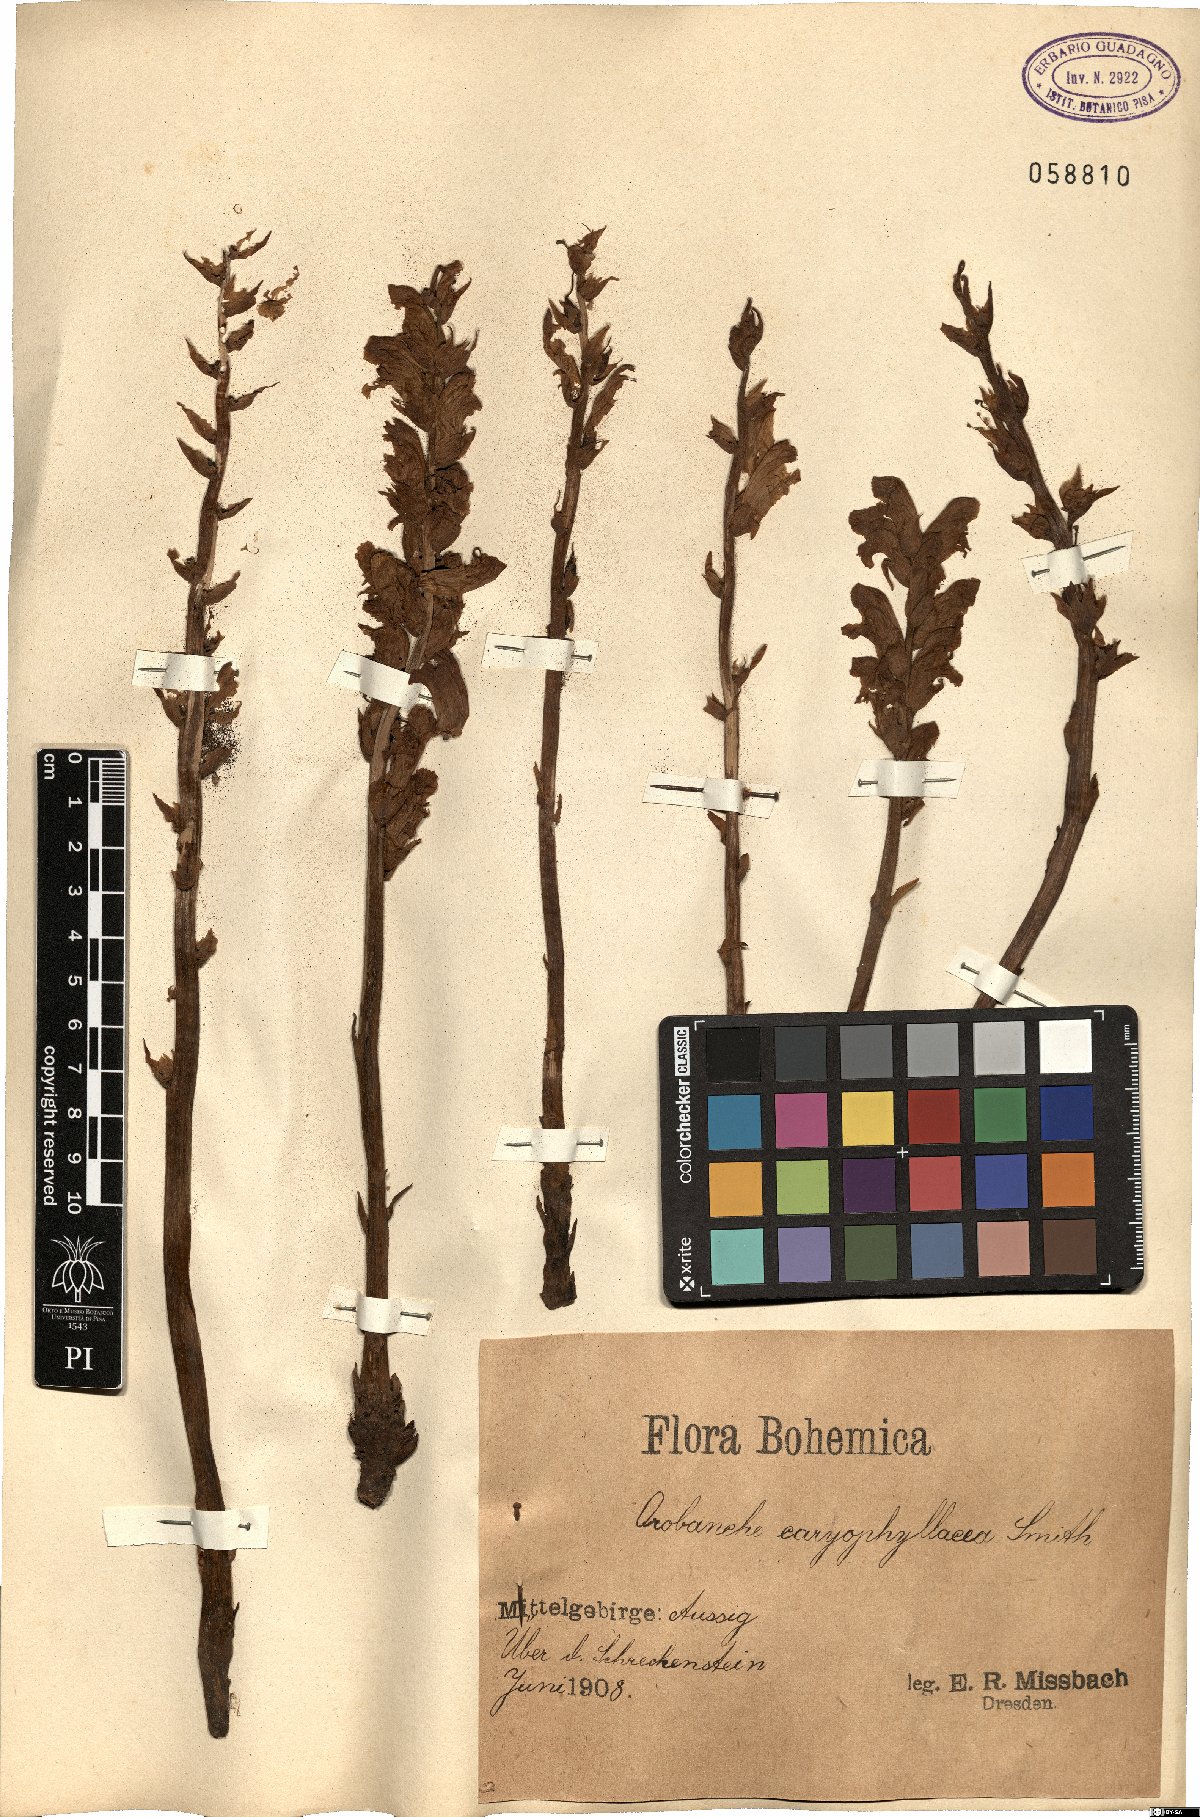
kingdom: Plantae
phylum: Tracheophyta
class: Magnoliopsida
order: Lamiales
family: Orobanchaceae
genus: Orobanche
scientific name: Orobanche caryophyllacea
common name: Bedstraw broomrape
